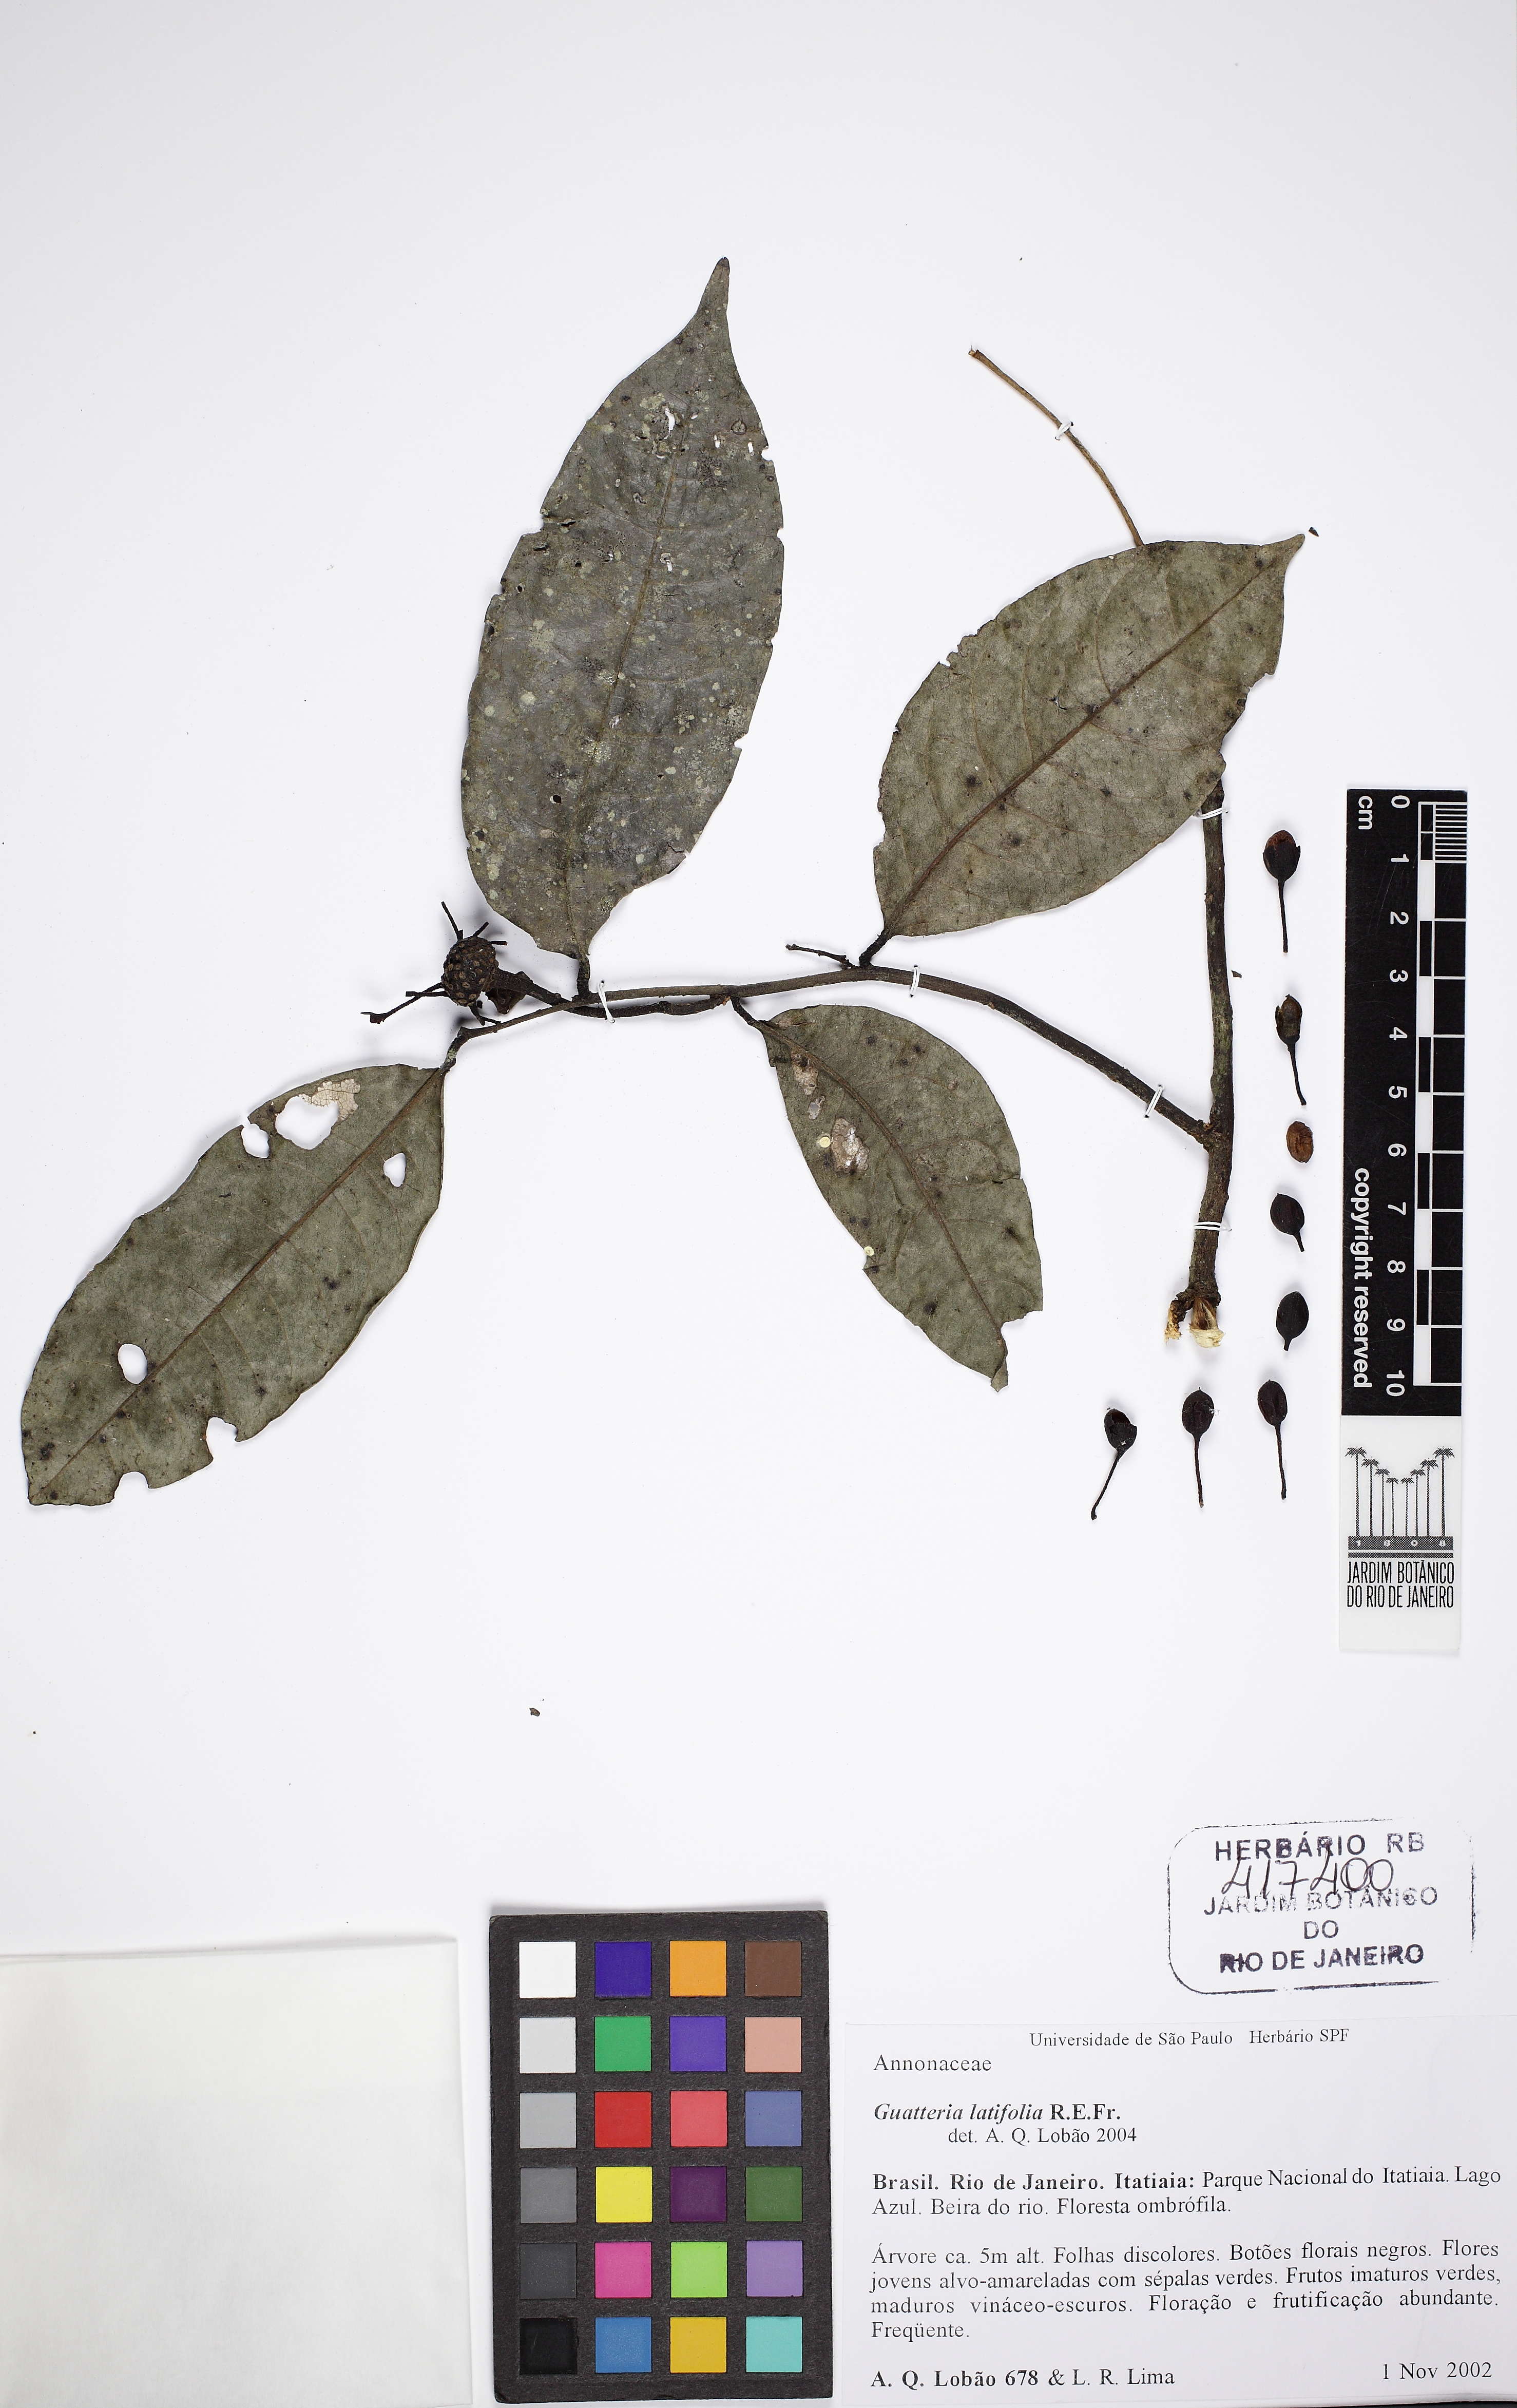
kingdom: Plantae
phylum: Tracheophyta
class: Magnoliopsida
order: Magnoliales
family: Annonaceae
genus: Guatteria
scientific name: Guatteria latifolia
